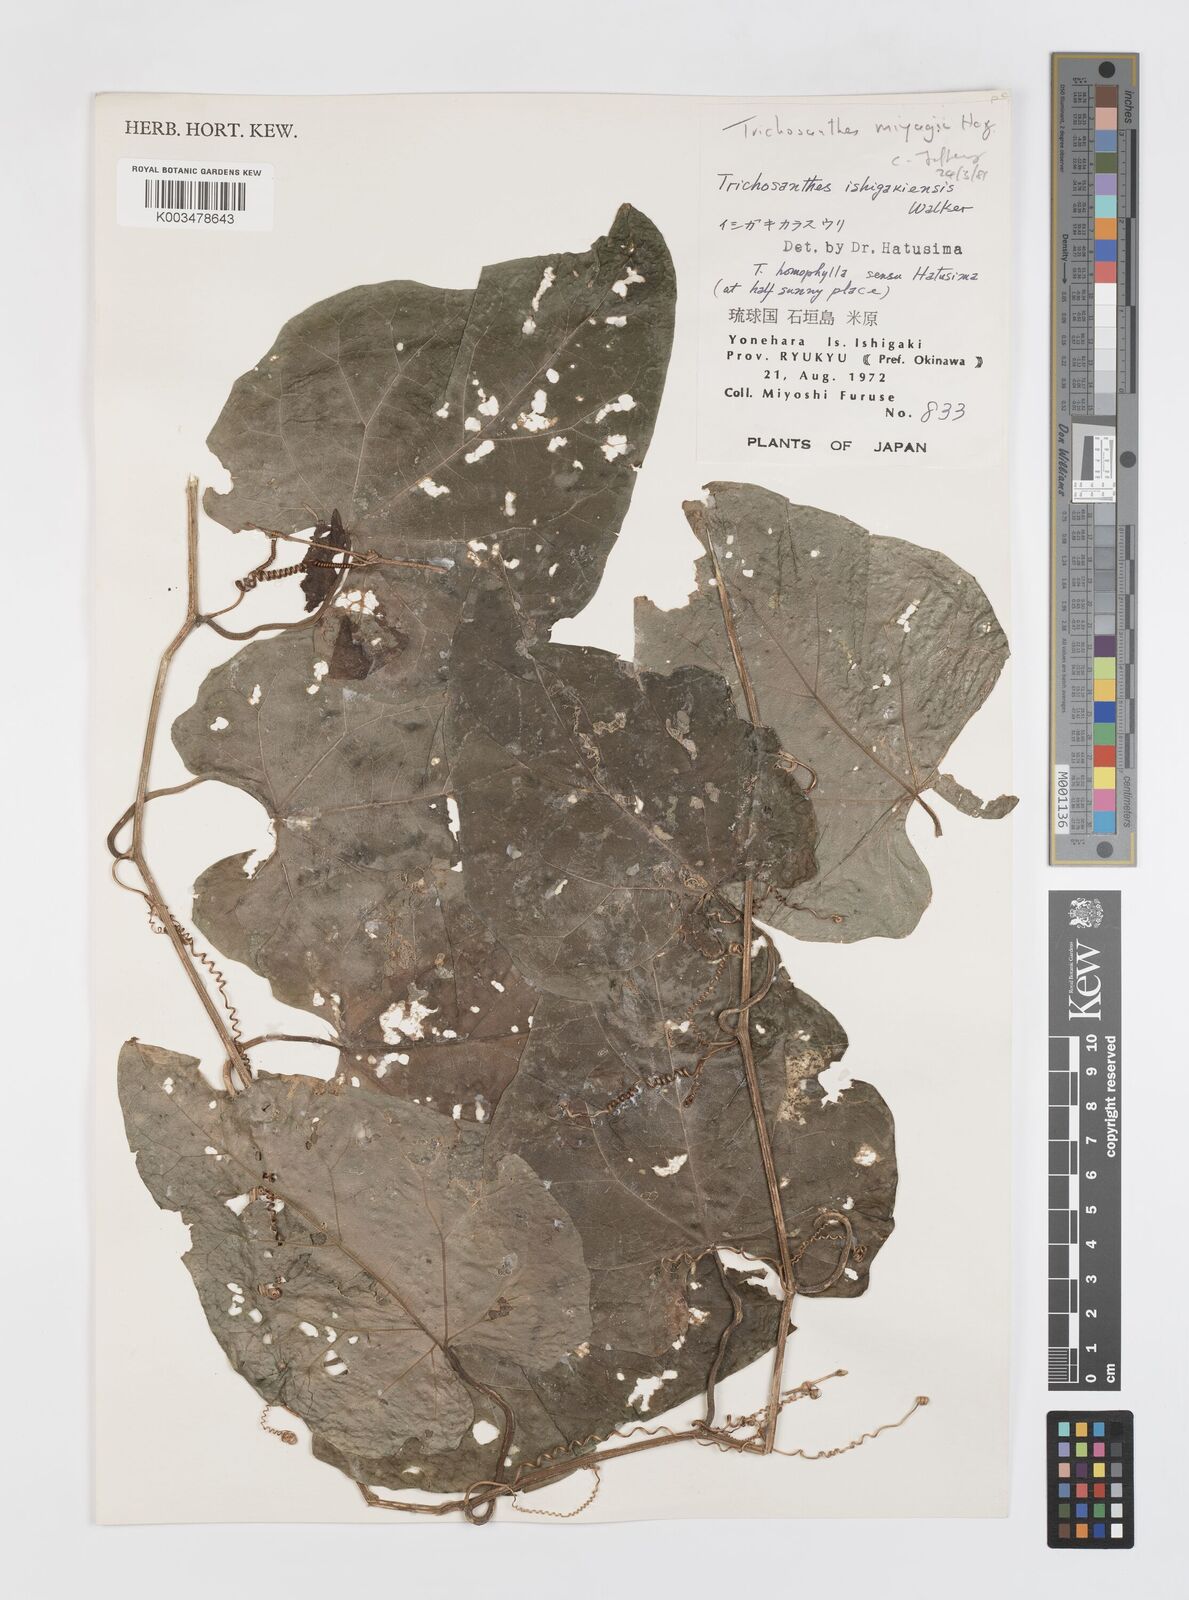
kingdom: Plantae
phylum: Tracheophyta
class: Magnoliopsida
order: Cucurbitales
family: Cucurbitaceae
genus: Trichosanthes
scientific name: Trichosanthes miyagii
